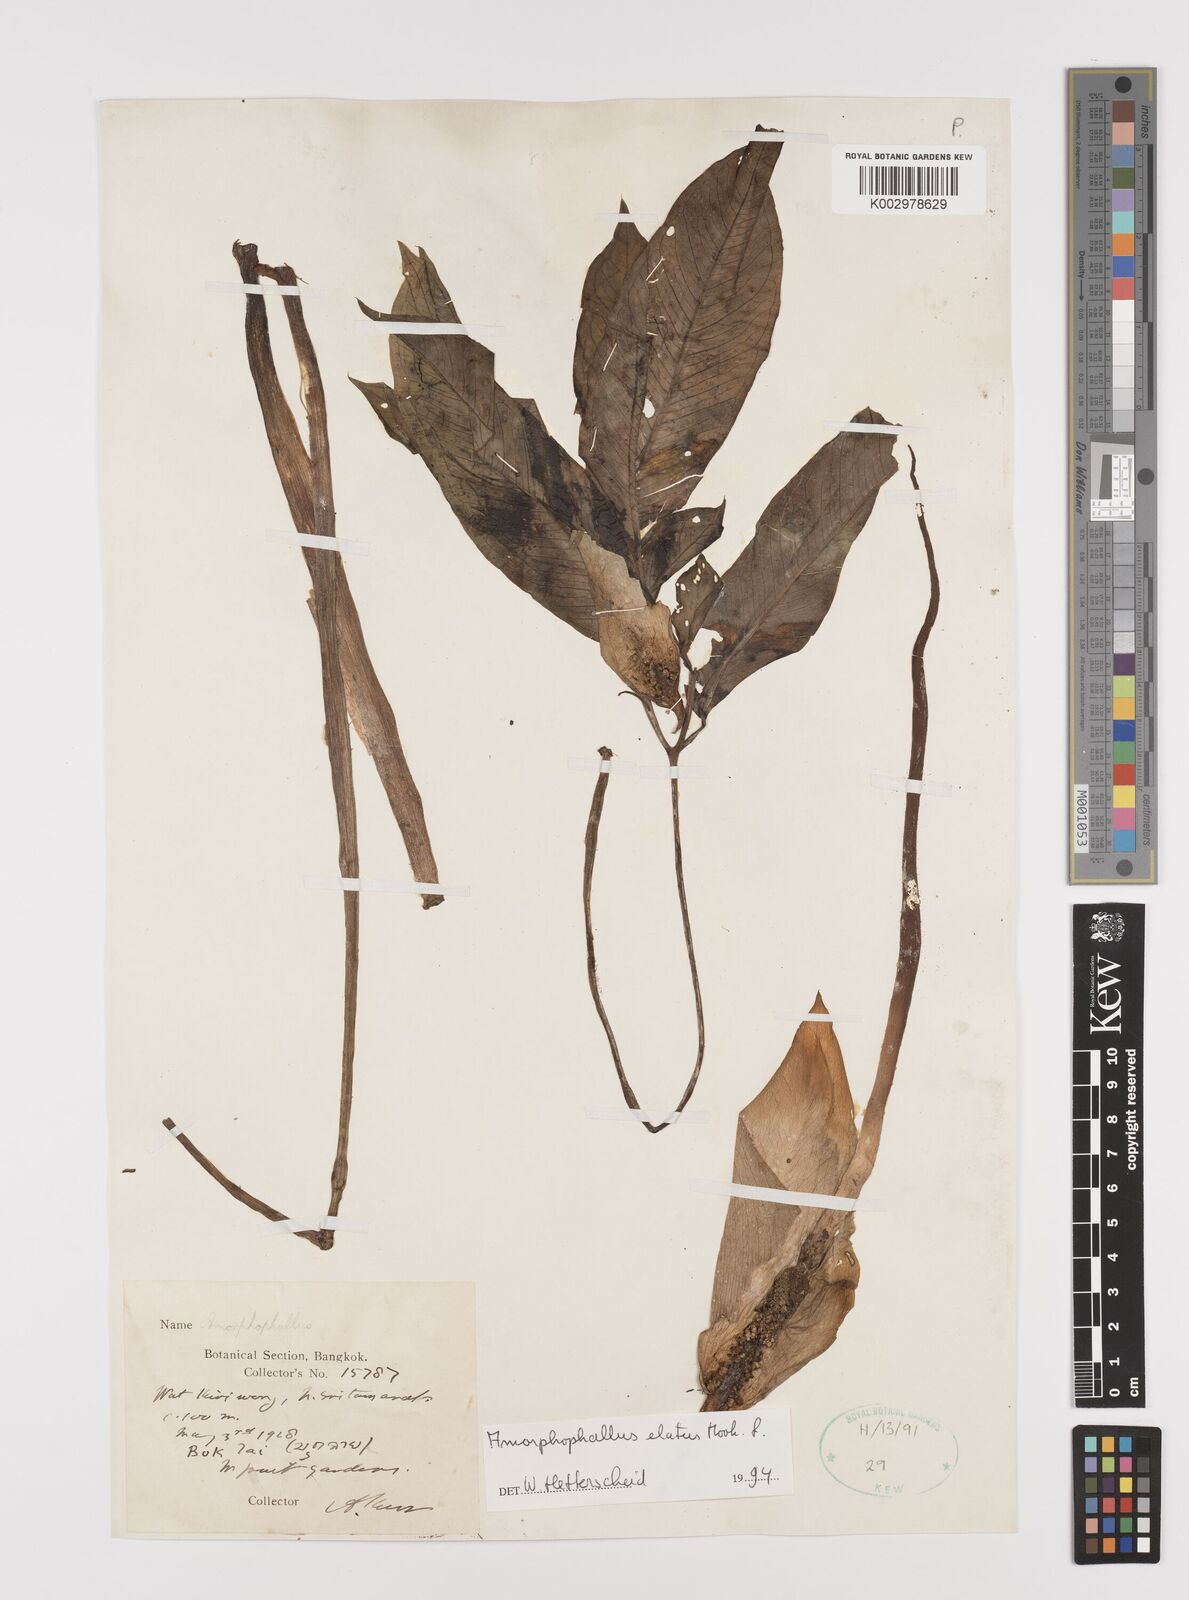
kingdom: Plantae
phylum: Tracheophyta
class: Liliopsida
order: Alismatales
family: Araceae
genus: Amorphophallus
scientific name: Amorphophallus elatus
